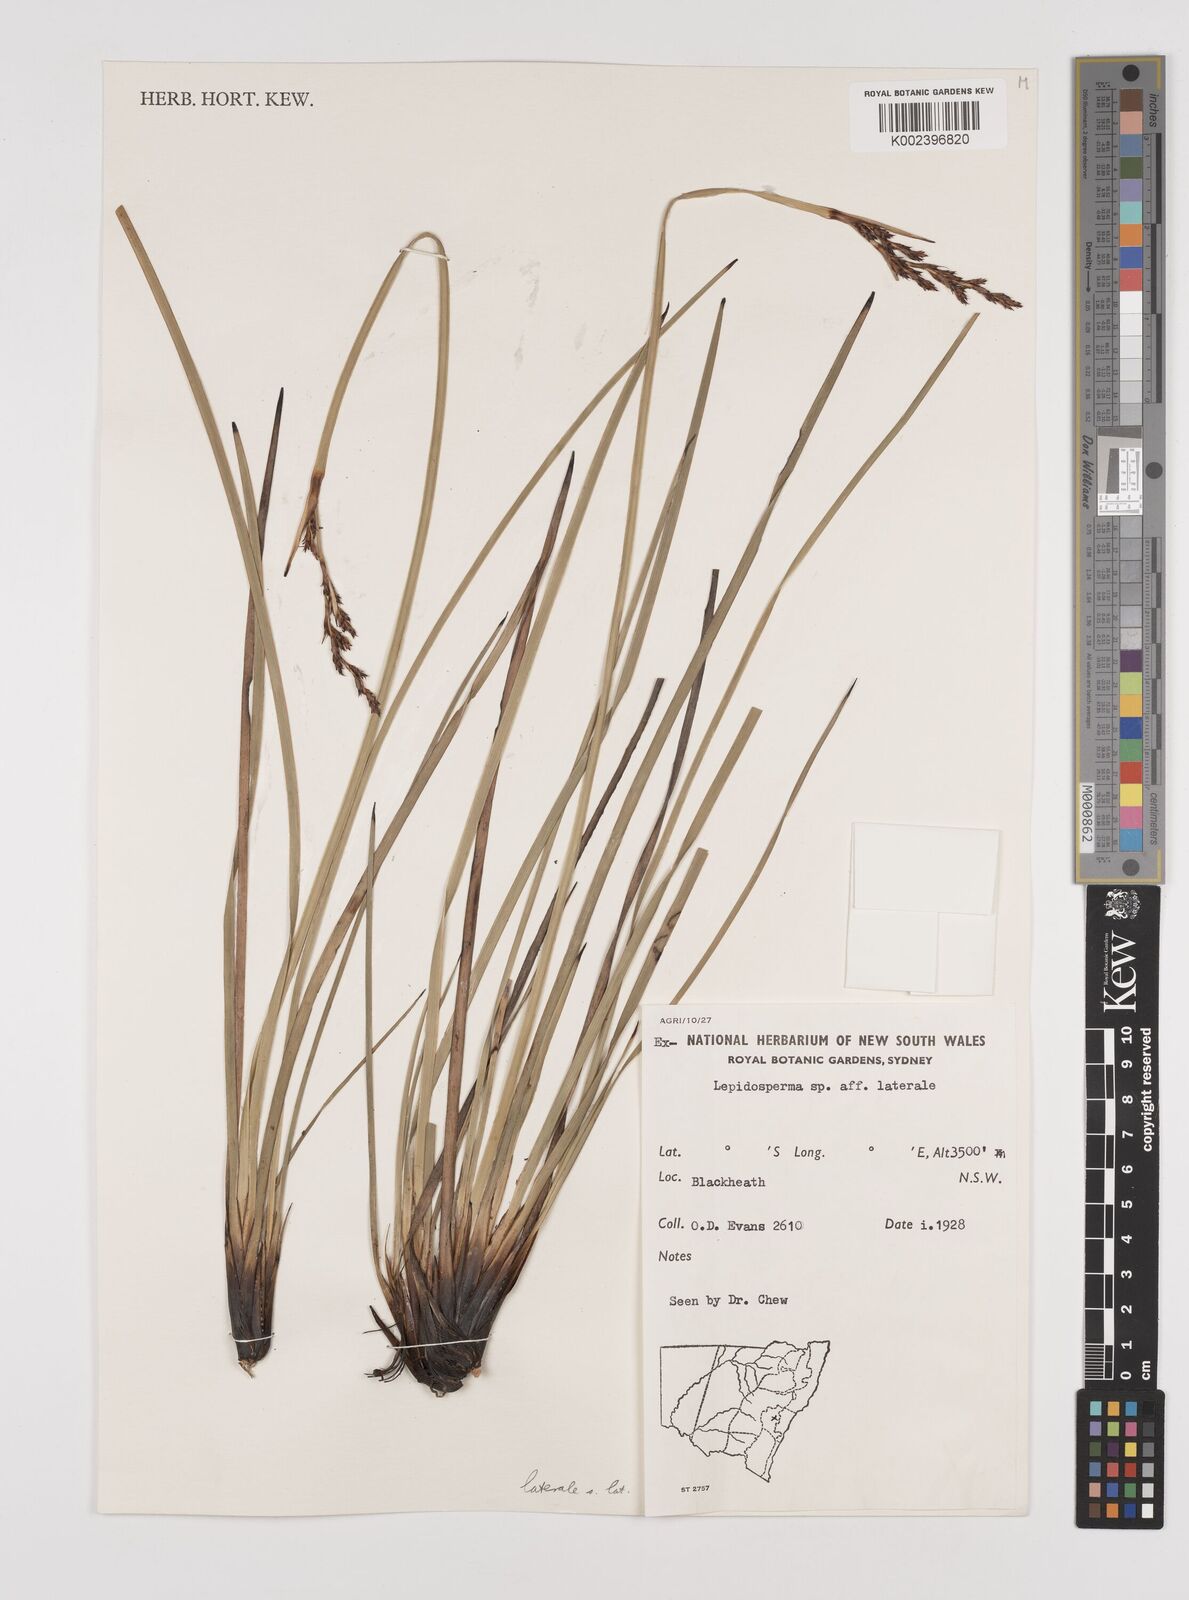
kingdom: Plantae
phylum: Tracheophyta
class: Liliopsida
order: Poales
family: Cyperaceae
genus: Lepidosperma
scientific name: Lepidosperma laterale
